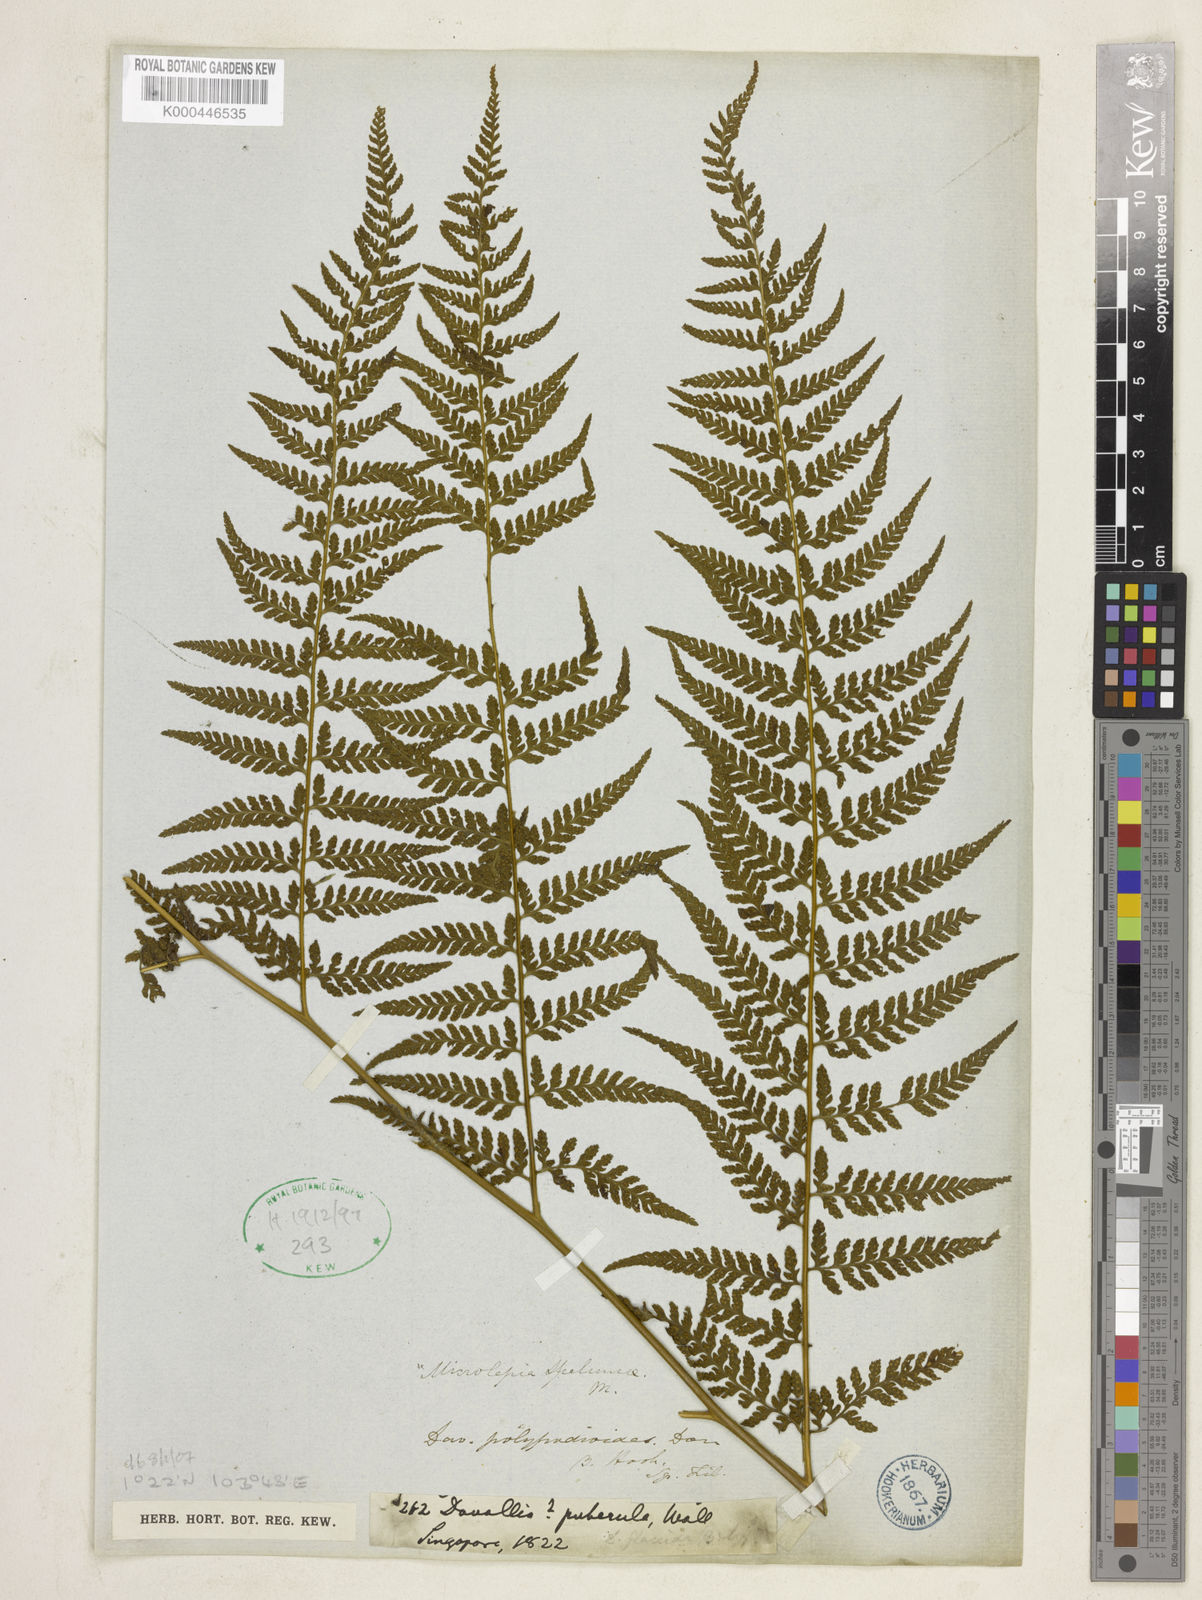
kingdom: Plantae
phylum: Tracheophyta
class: Polypodiopsida
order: Polypodiales
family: Dennstaedtiaceae
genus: Microlepia
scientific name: Microlepia
